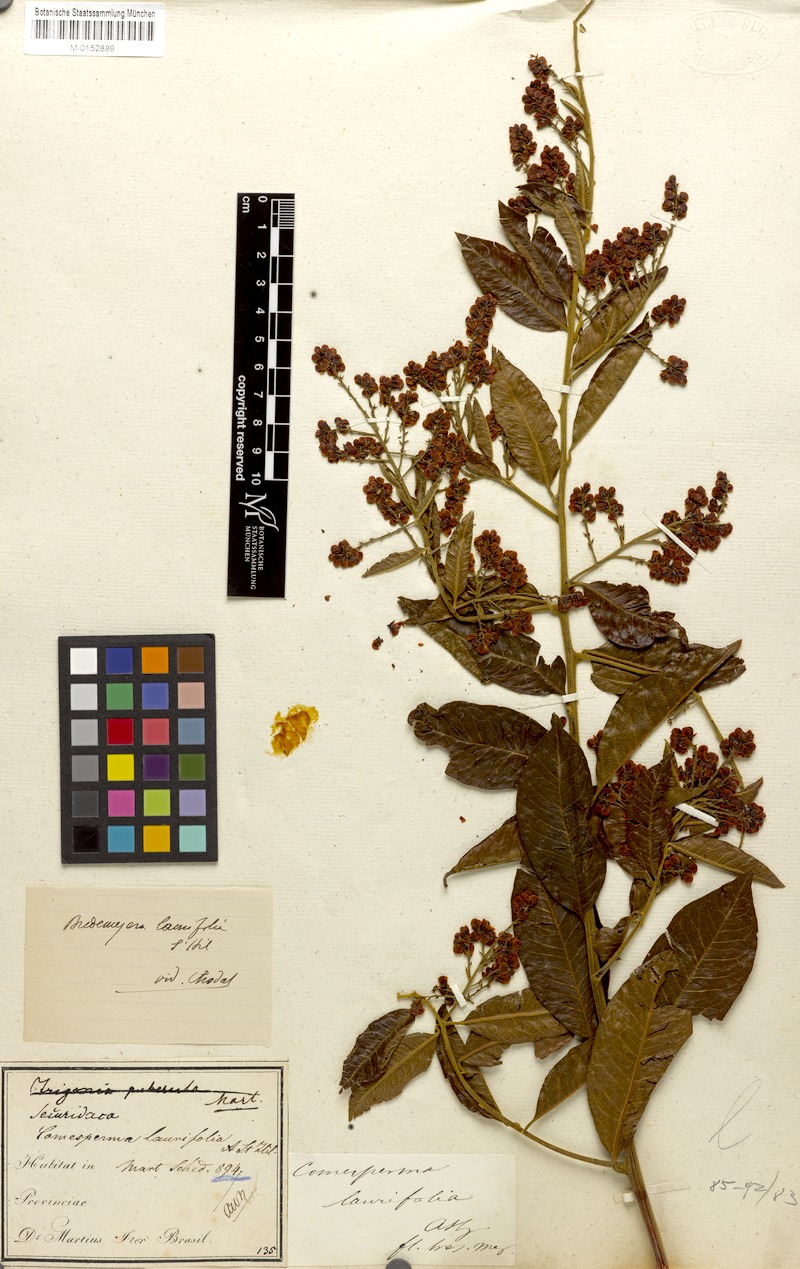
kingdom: Plantae
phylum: Tracheophyta
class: Magnoliopsida
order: Fabales
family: Polygalaceae
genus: Bredemeyera
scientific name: Bredemeyera laurifolia
